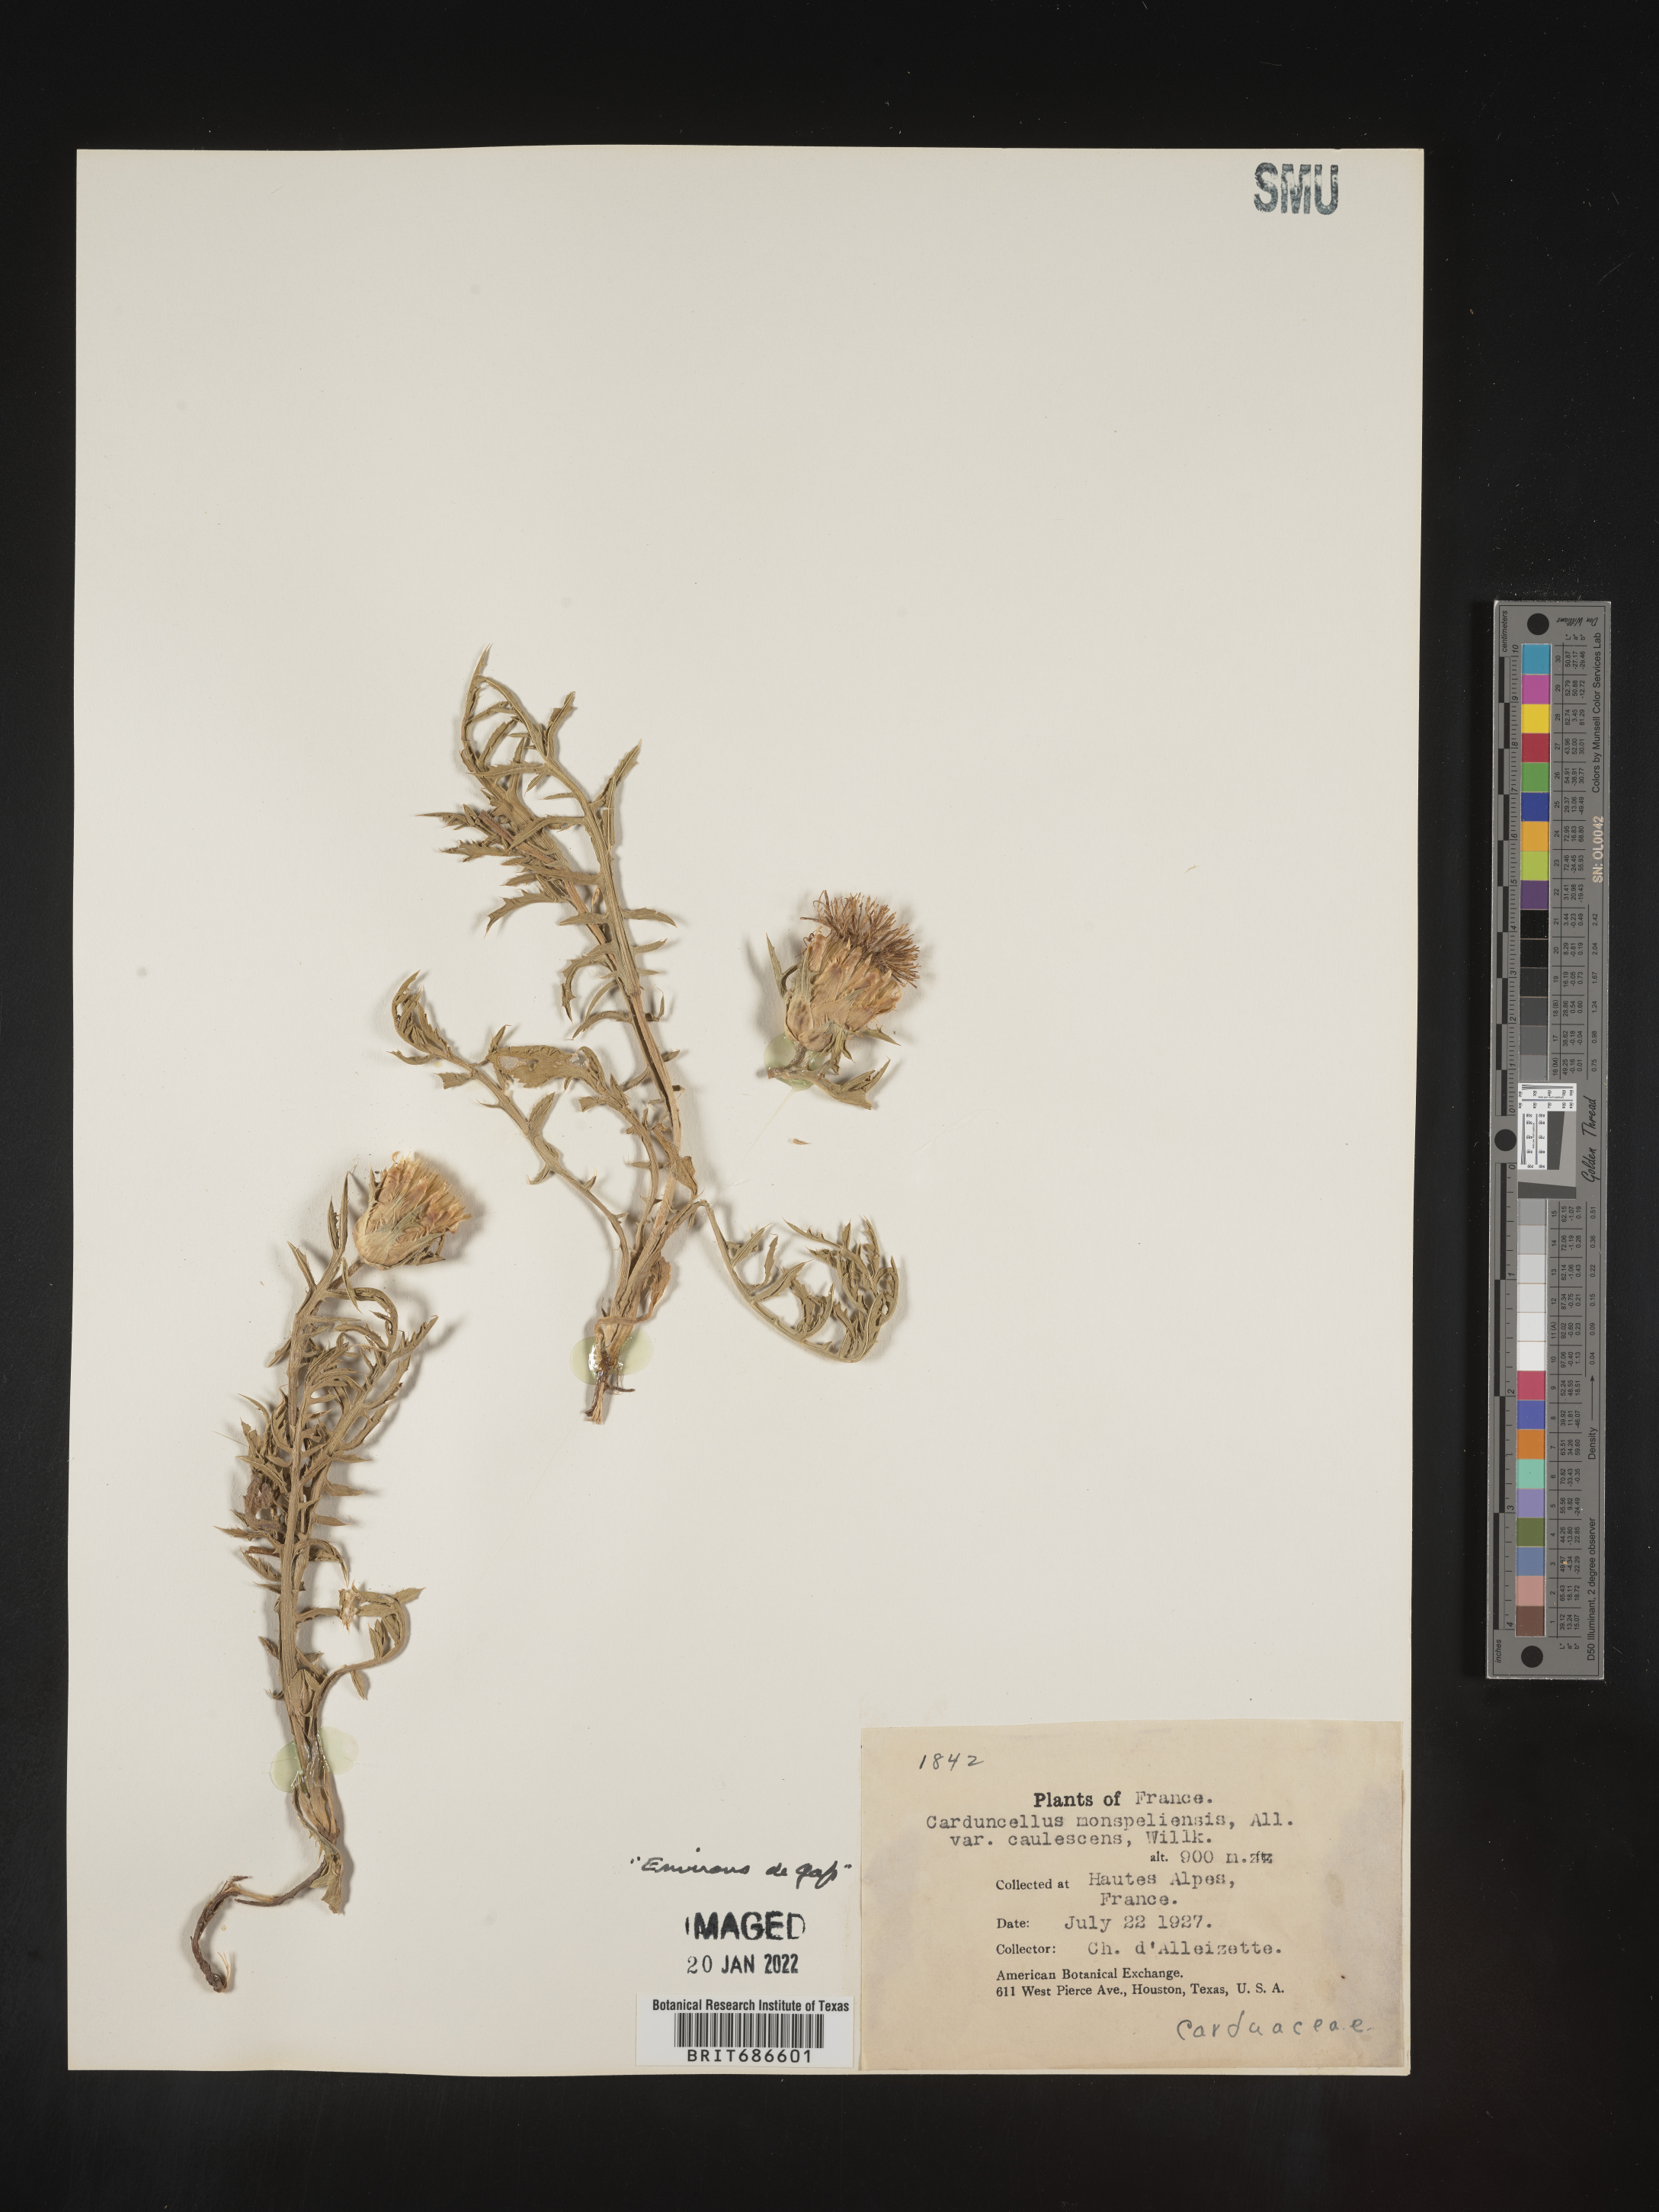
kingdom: Plantae
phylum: Tracheophyta
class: Magnoliopsida
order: Asterales
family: Asteraceae
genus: Carduncellus
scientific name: Carduncellus
